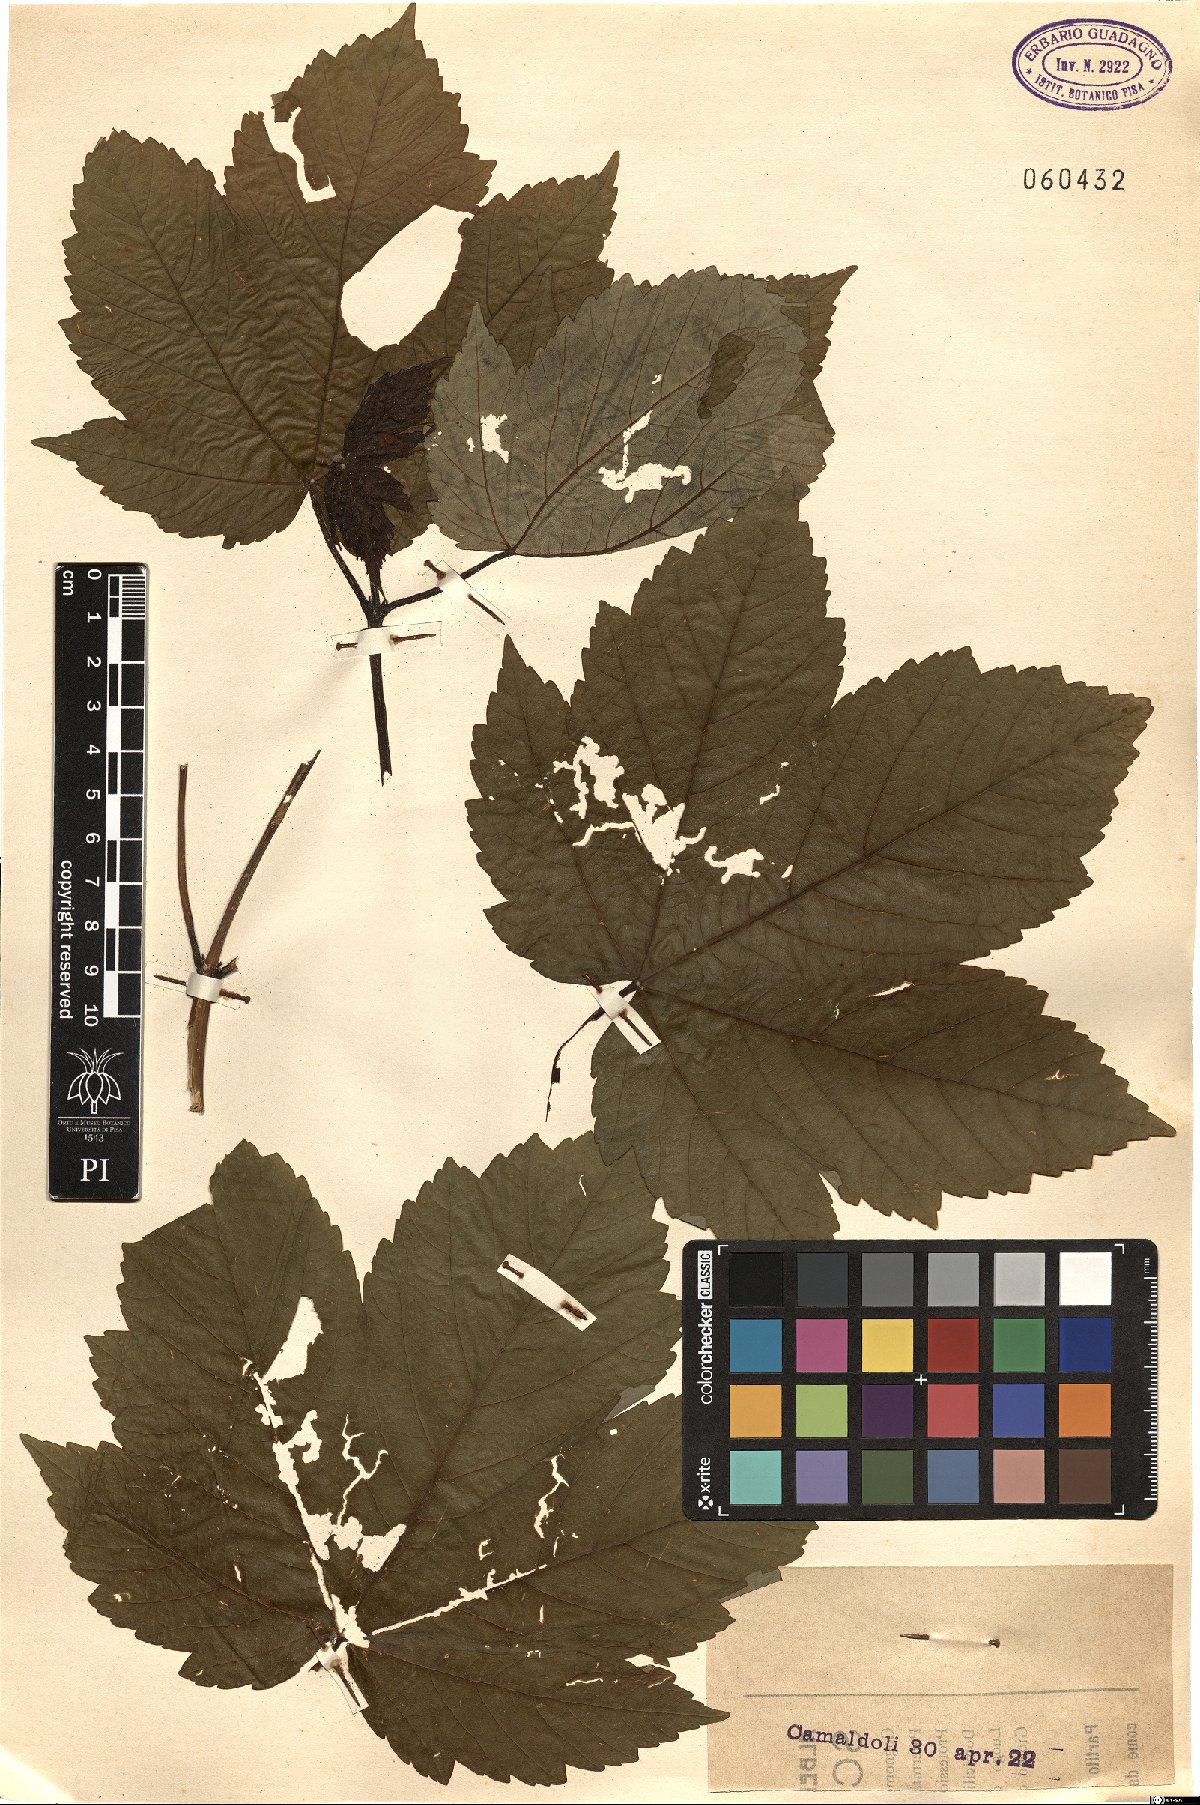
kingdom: Plantae
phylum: Tracheophyta
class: Magnoliopsida
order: Sapindales
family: Sapindaceae
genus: Acer
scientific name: Acer pseudoplatanus
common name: Sycamore
